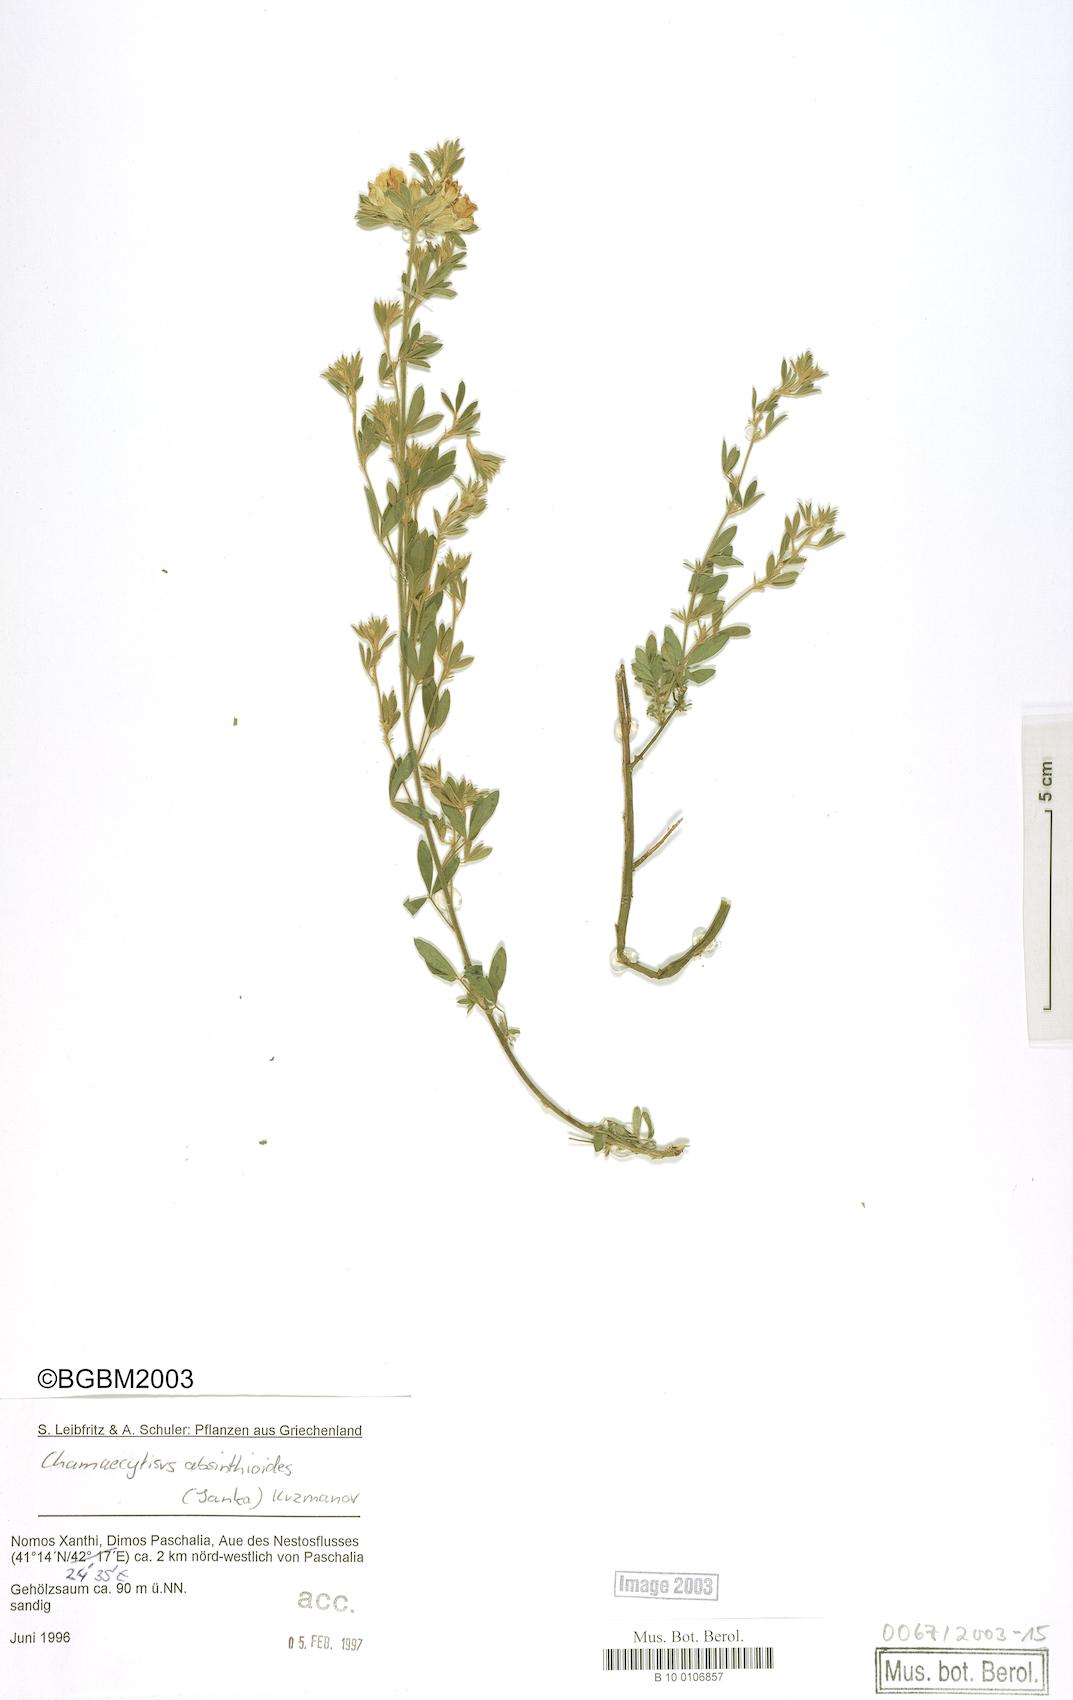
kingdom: Plantae
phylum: Tracheophyta
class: Magnoliopsida
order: Fabales
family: Fabaceae
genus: Chamaecytisus
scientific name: Chamaecytisus eriocarpus
